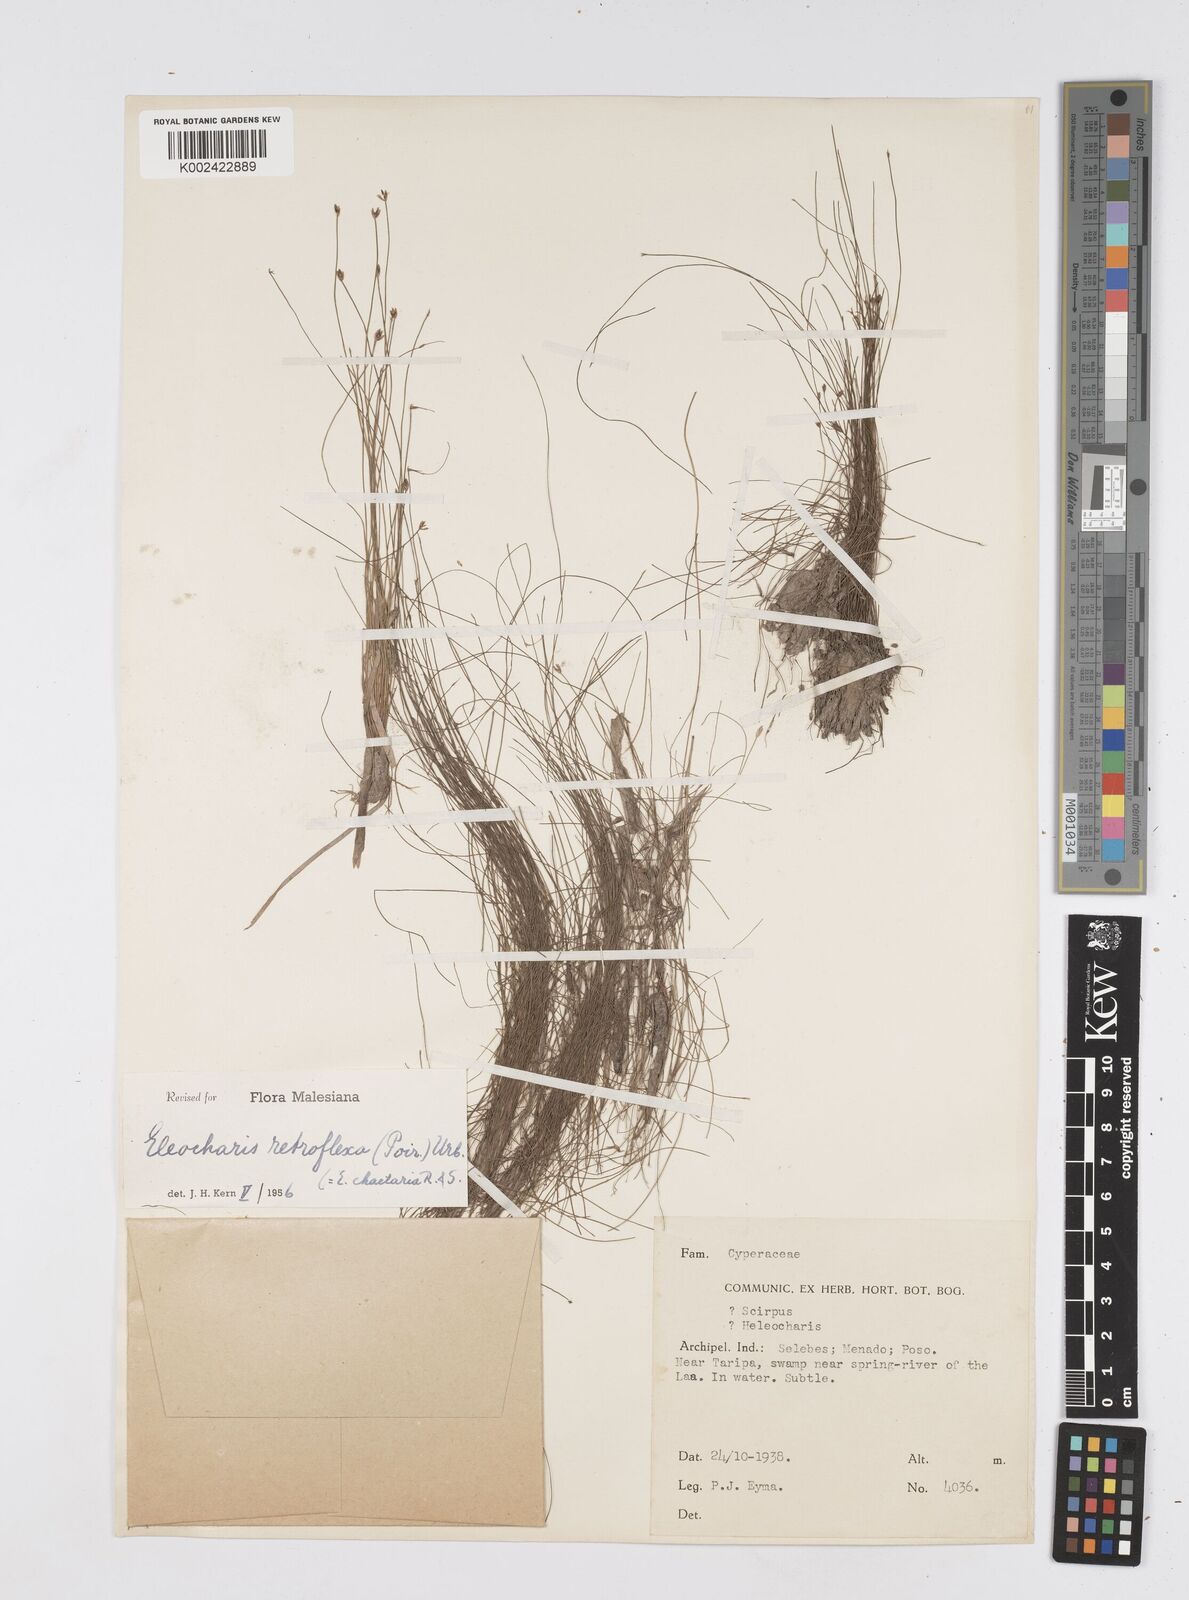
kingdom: Plantae
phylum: Tracheophyta
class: Liliopsida
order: Poales
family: Cyperaceae
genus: Eleocharis
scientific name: Eleocharis retroflexa
